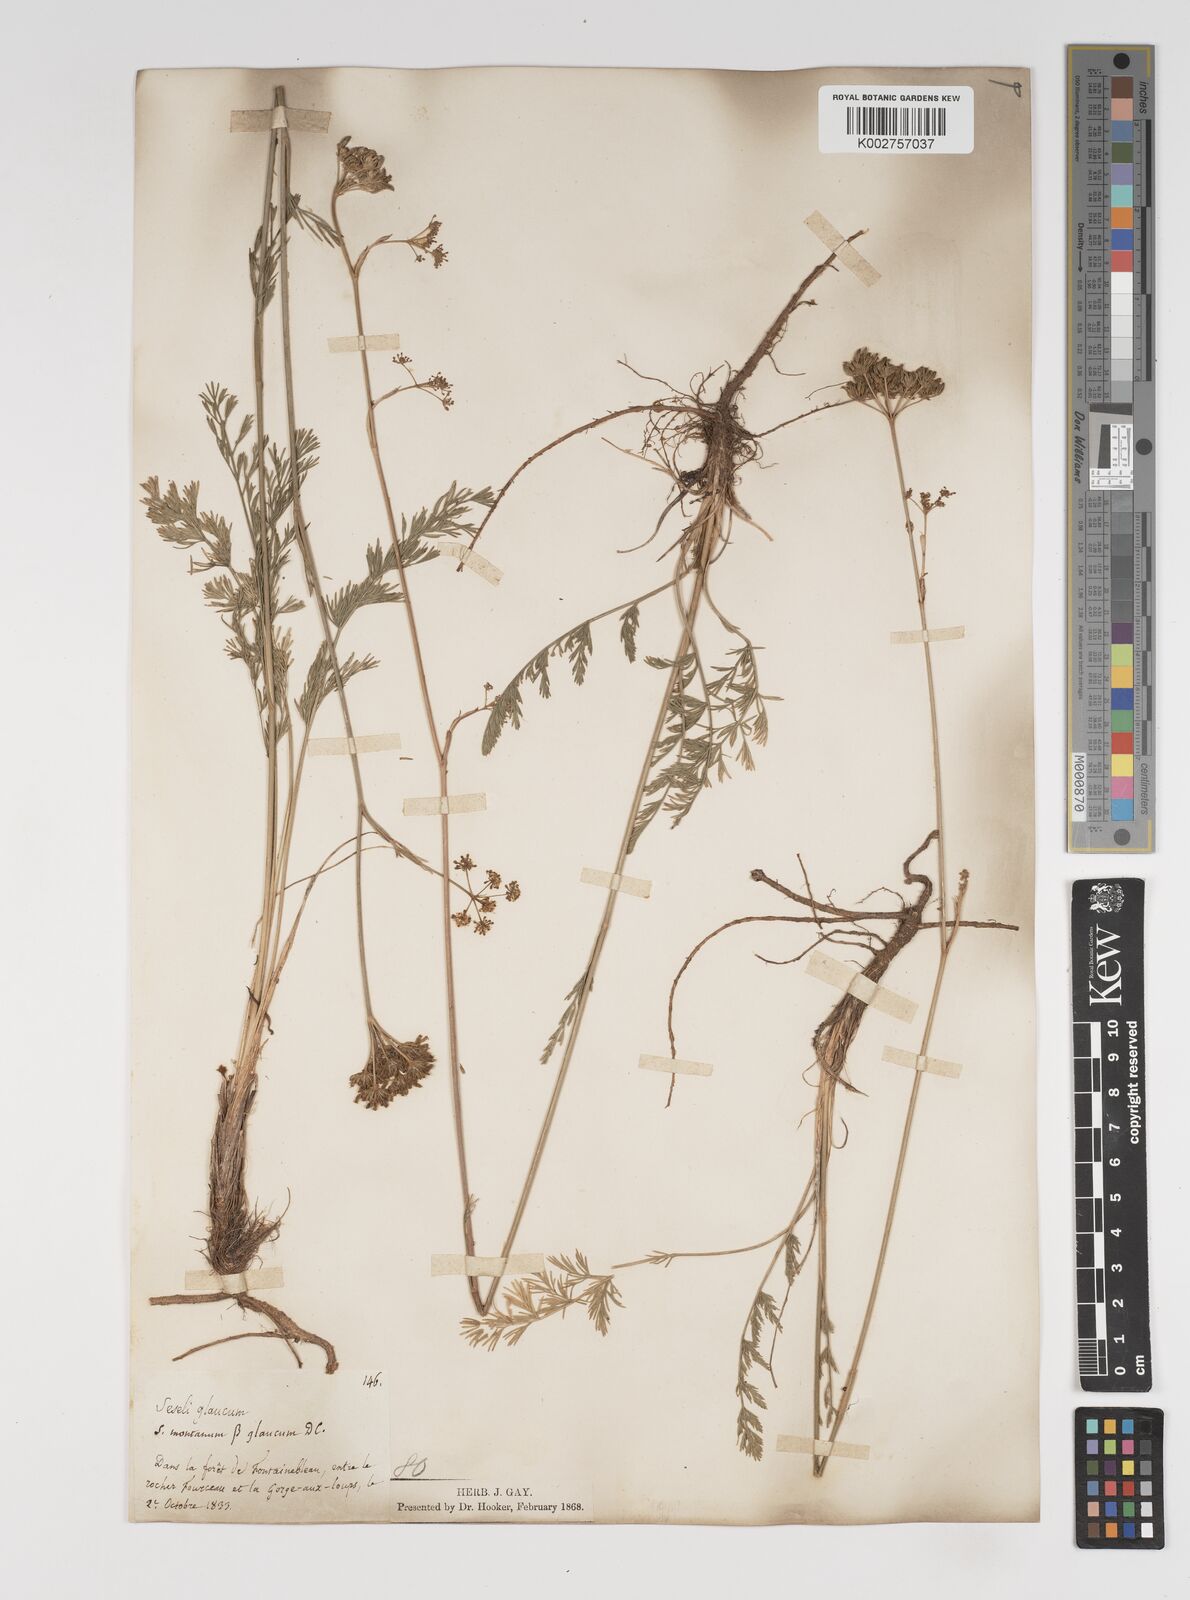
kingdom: Plantae
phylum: Tracheophyta
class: Magnoliopsida
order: Apiales
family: Apiaceae
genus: Seseli
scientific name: Seseli montanum
